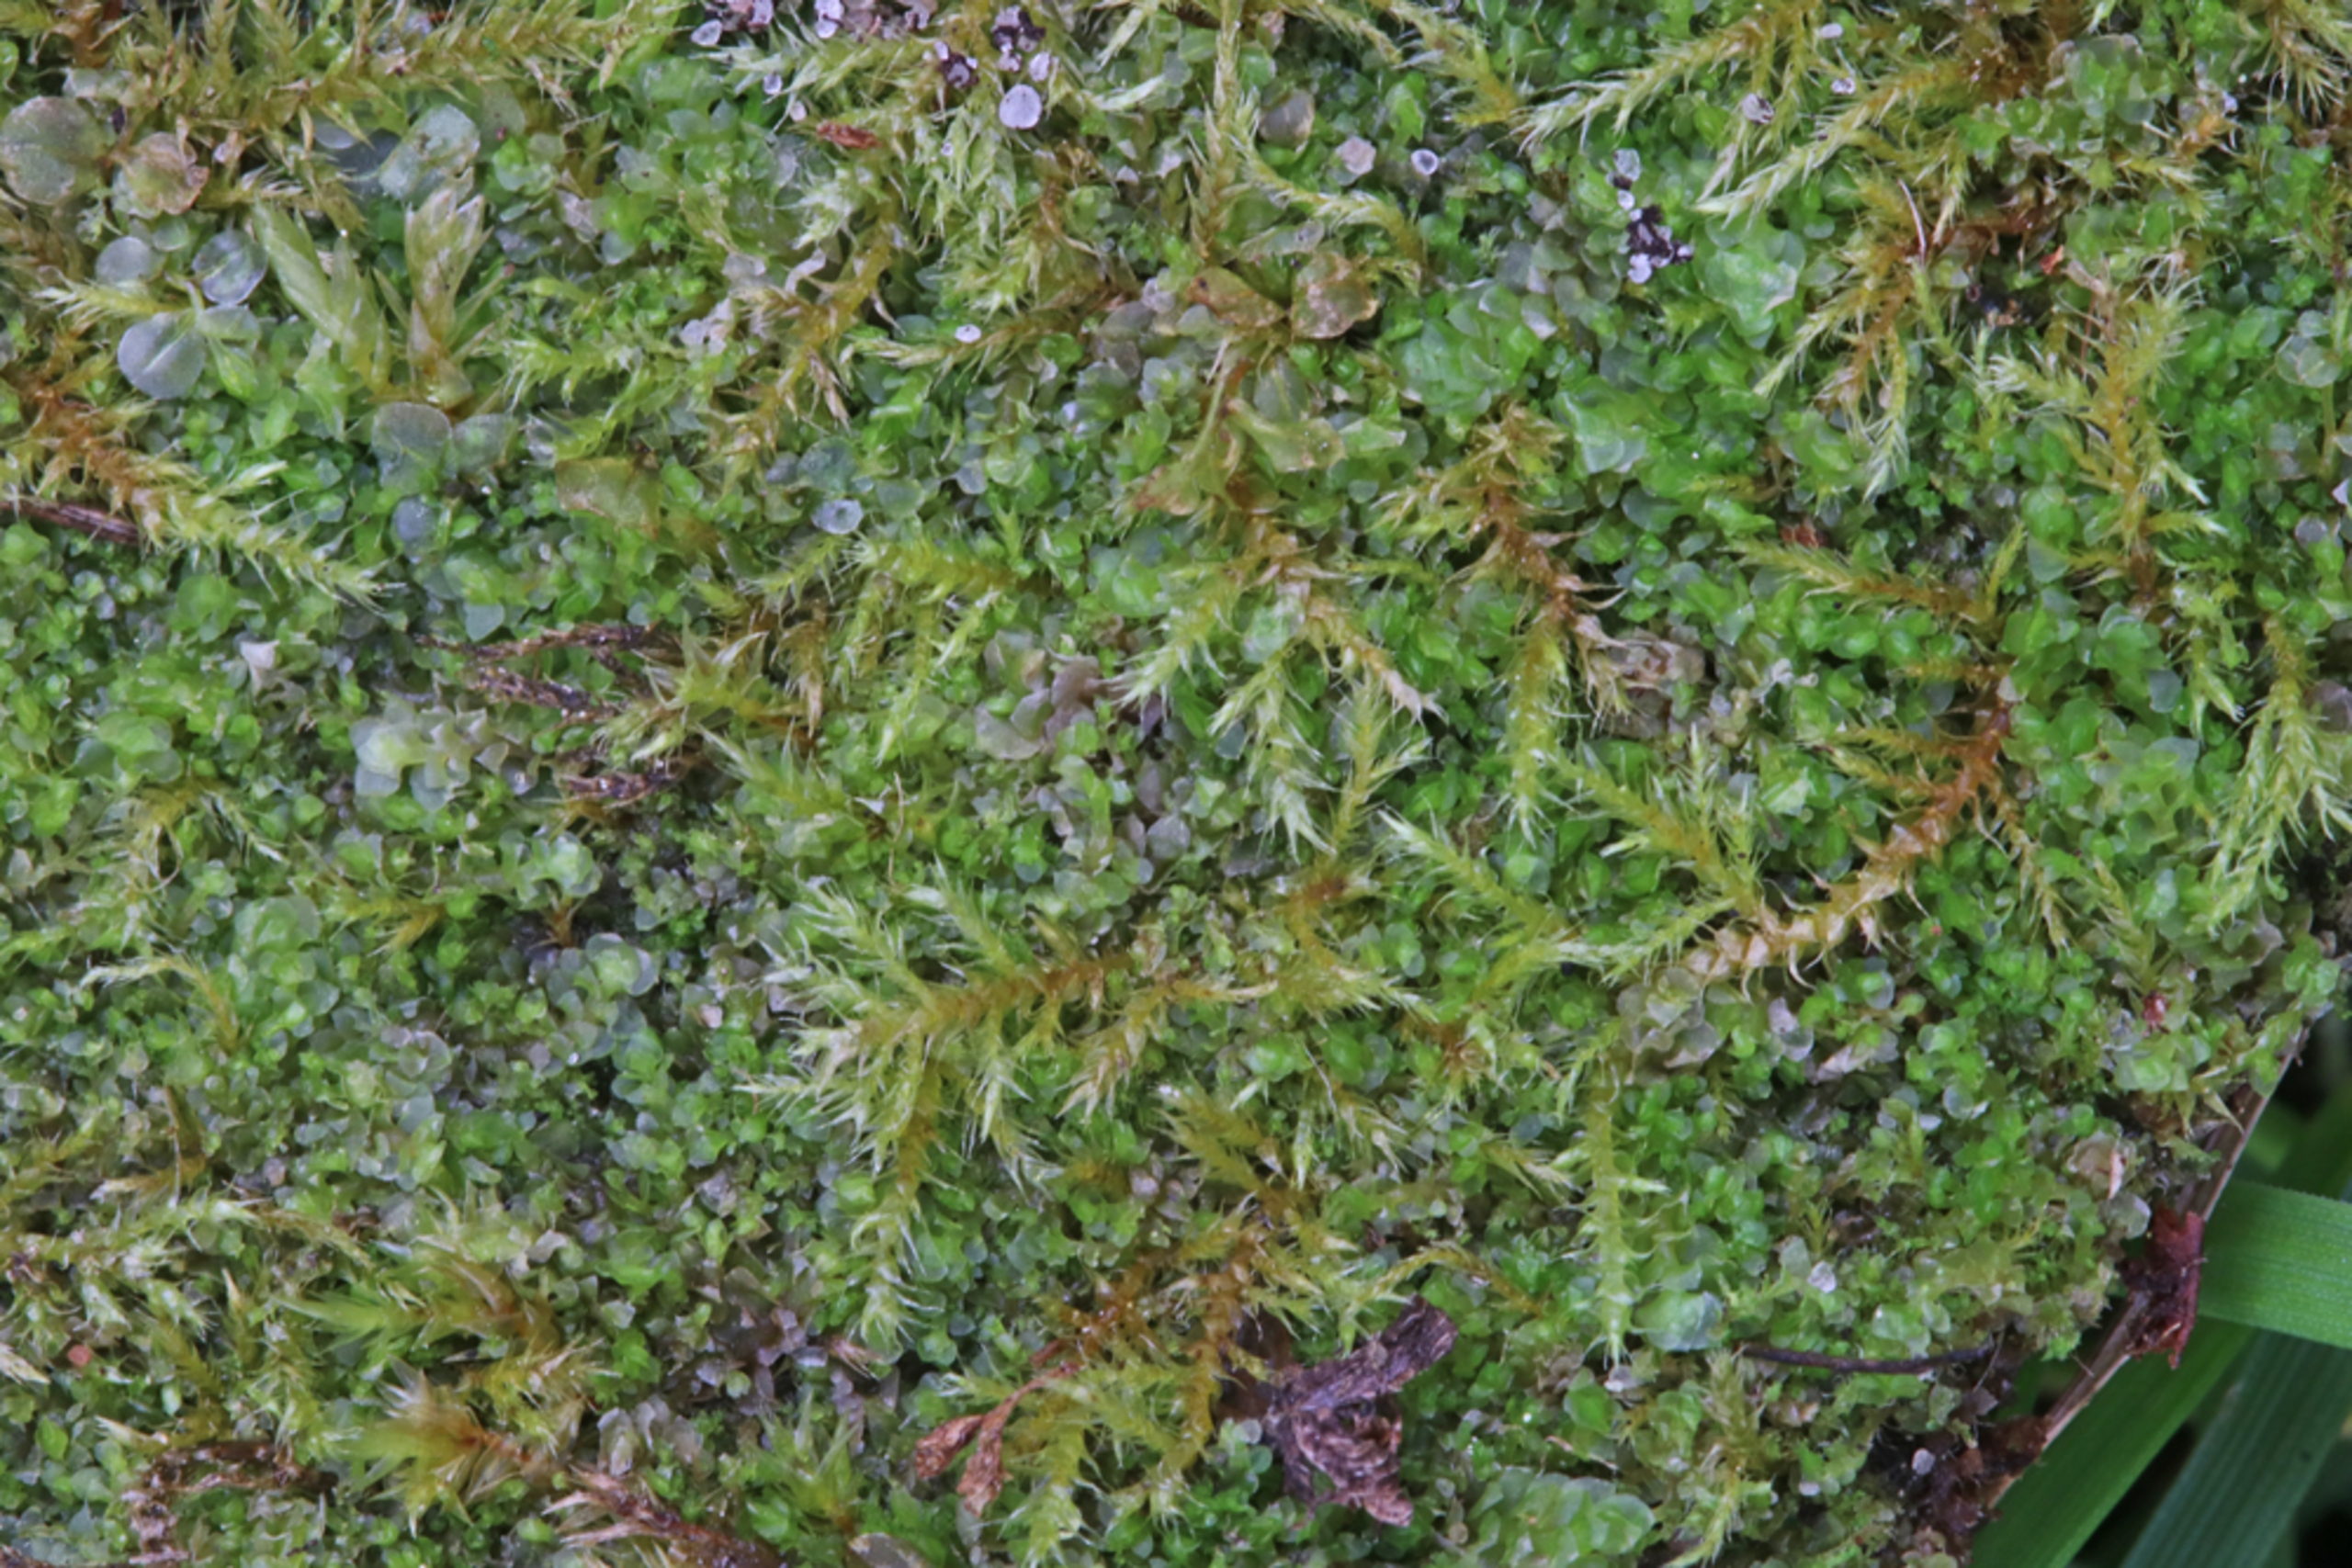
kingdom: Plantae
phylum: Marchantiophyta
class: Jungermanniopsida
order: Jungermanniales
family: Scapaniaceae
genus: Scapania
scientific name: Scapania scandica
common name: Liden tveblad
